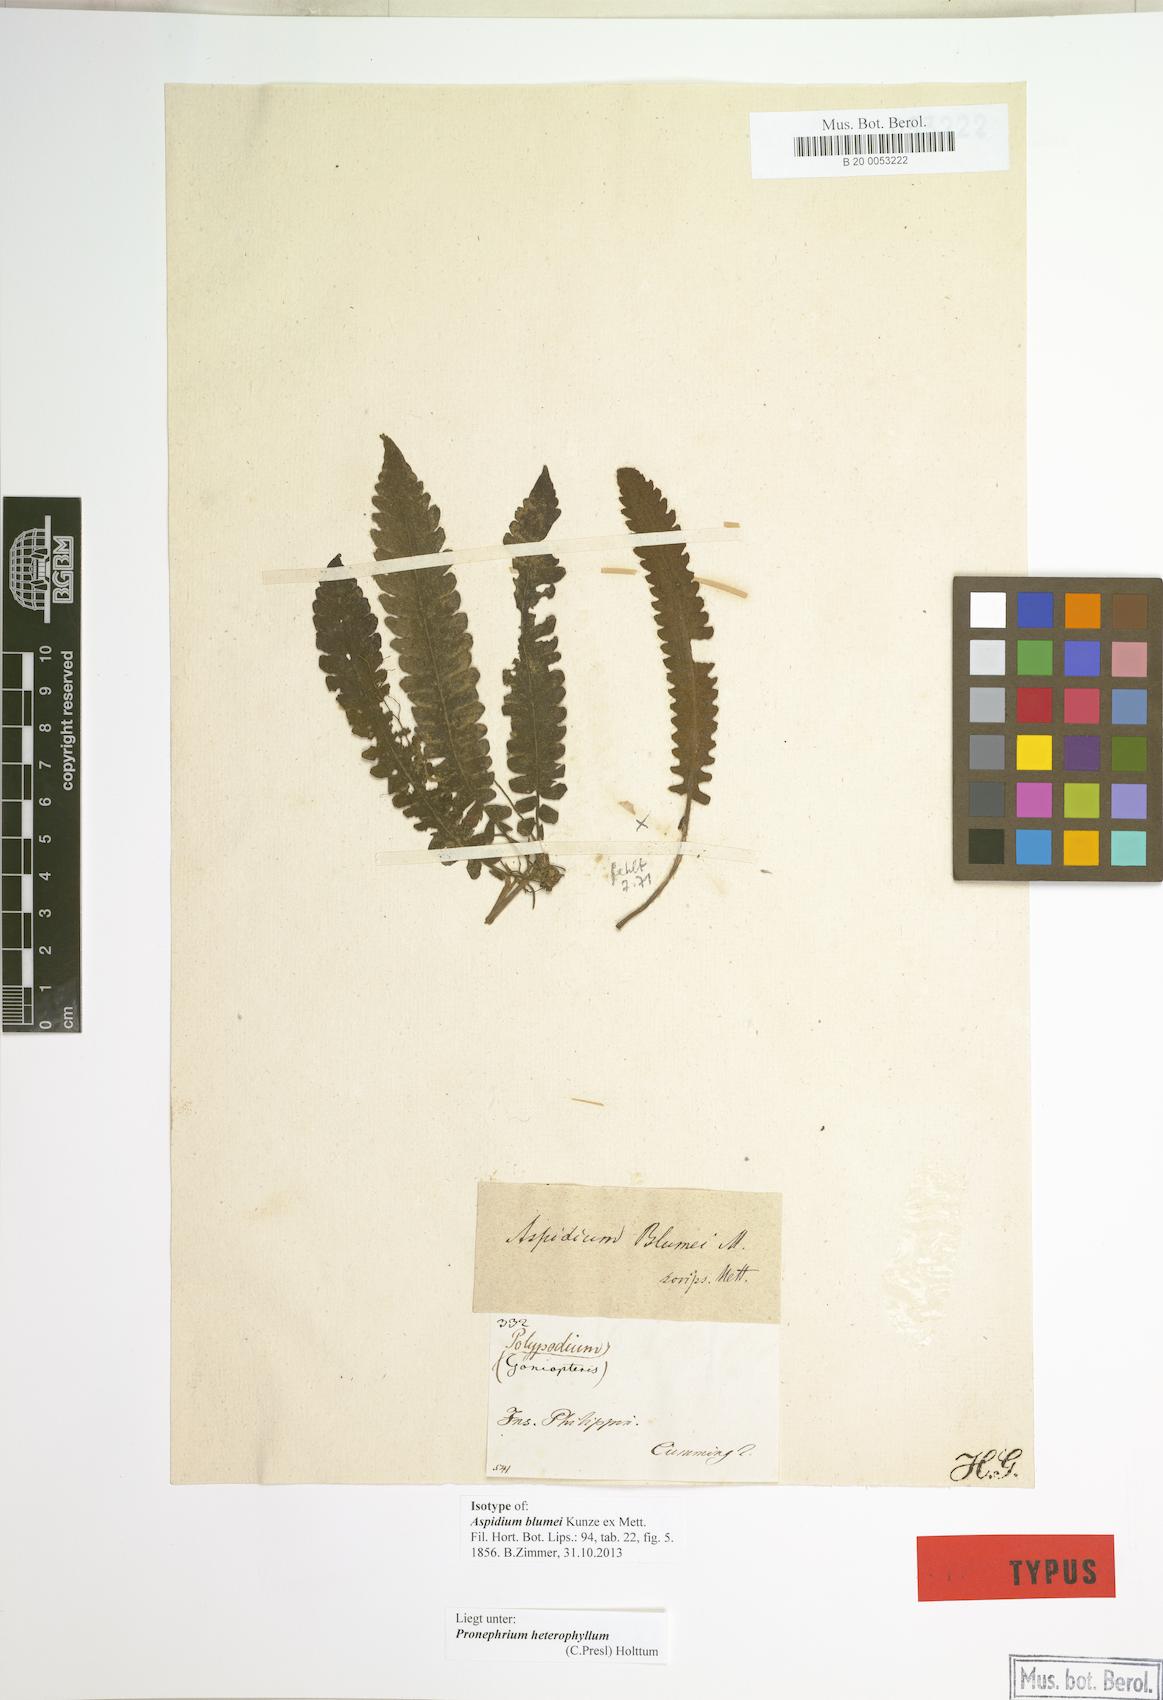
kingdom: Plantae
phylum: Tracheophyta
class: Polypodiopsida
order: Polypodiales
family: Thelypteridaceae
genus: Sphaerostephanos
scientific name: Sphaerostephanos heterophyllus
